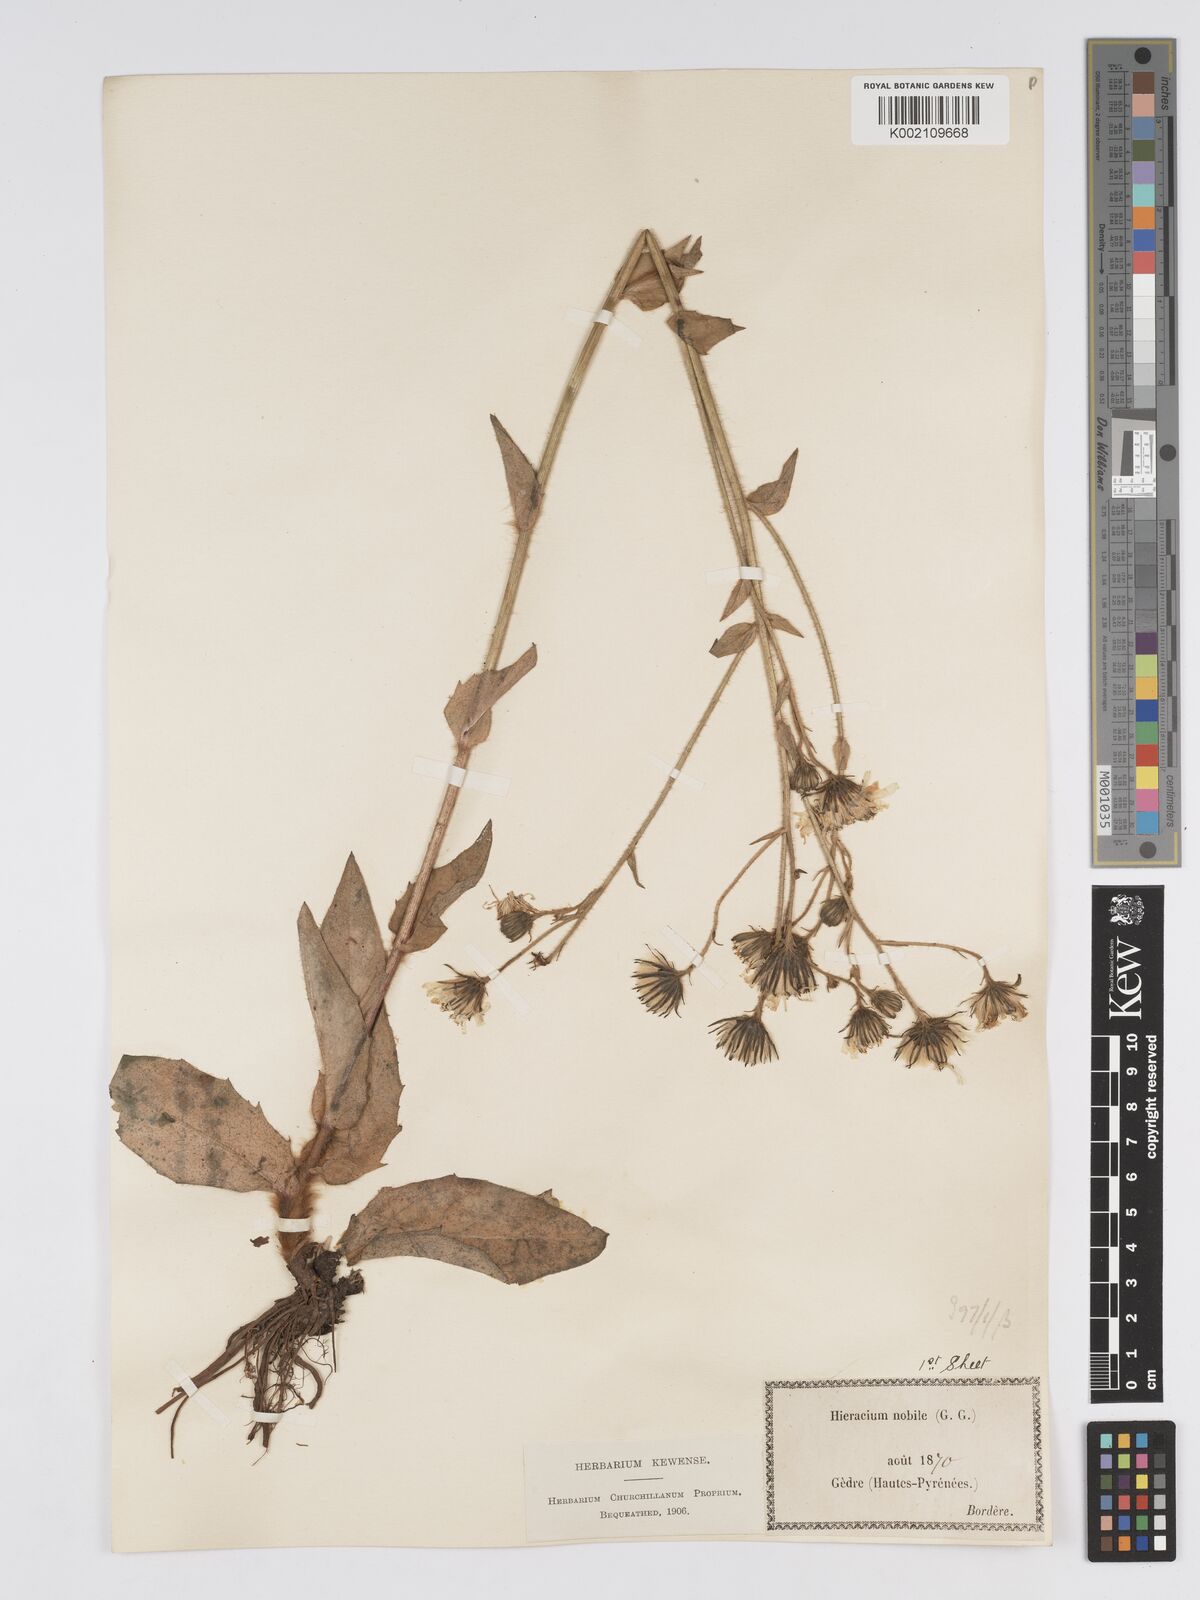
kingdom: Plantae
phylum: Tracheophyta
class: Magnoliopsida
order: Asterales
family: Asteraceae
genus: Hieracium
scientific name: Hieracium nobile
